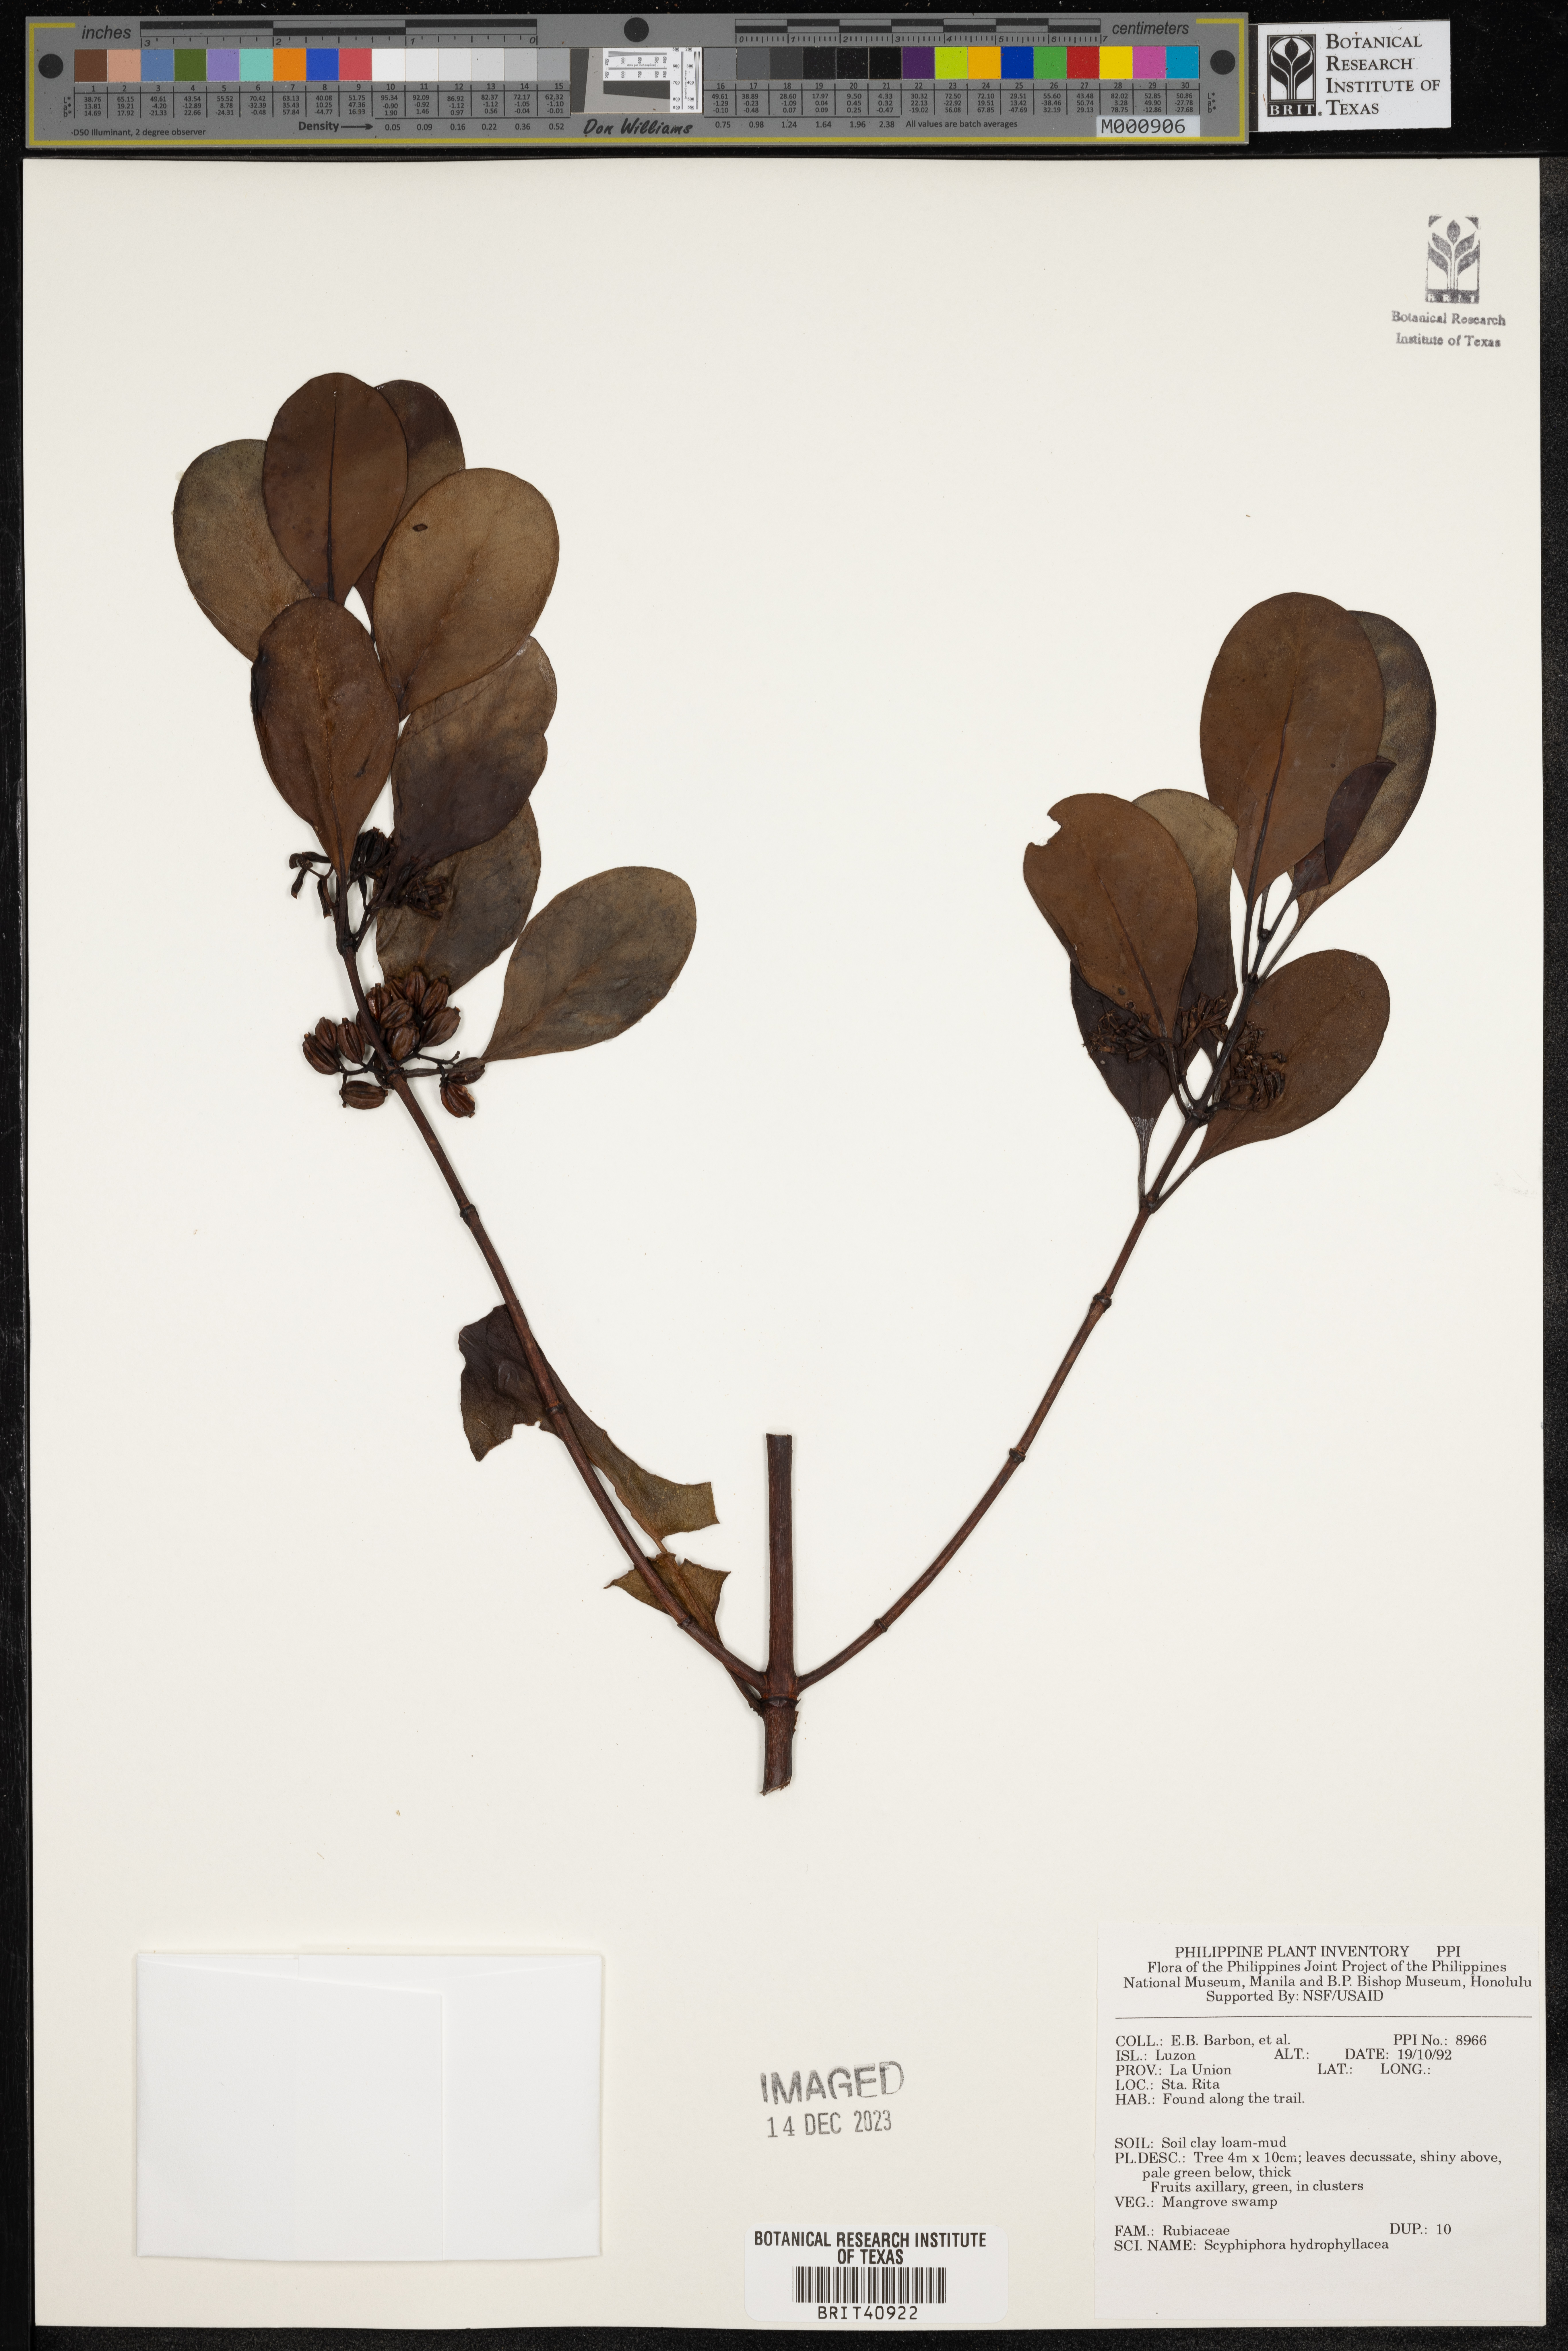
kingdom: Plantae
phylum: Tracheophyta
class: Magnoliopsida
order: Gentianales
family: Rubiaceae
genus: Scyphiphora
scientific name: Scyphiphora hydrophylacea
